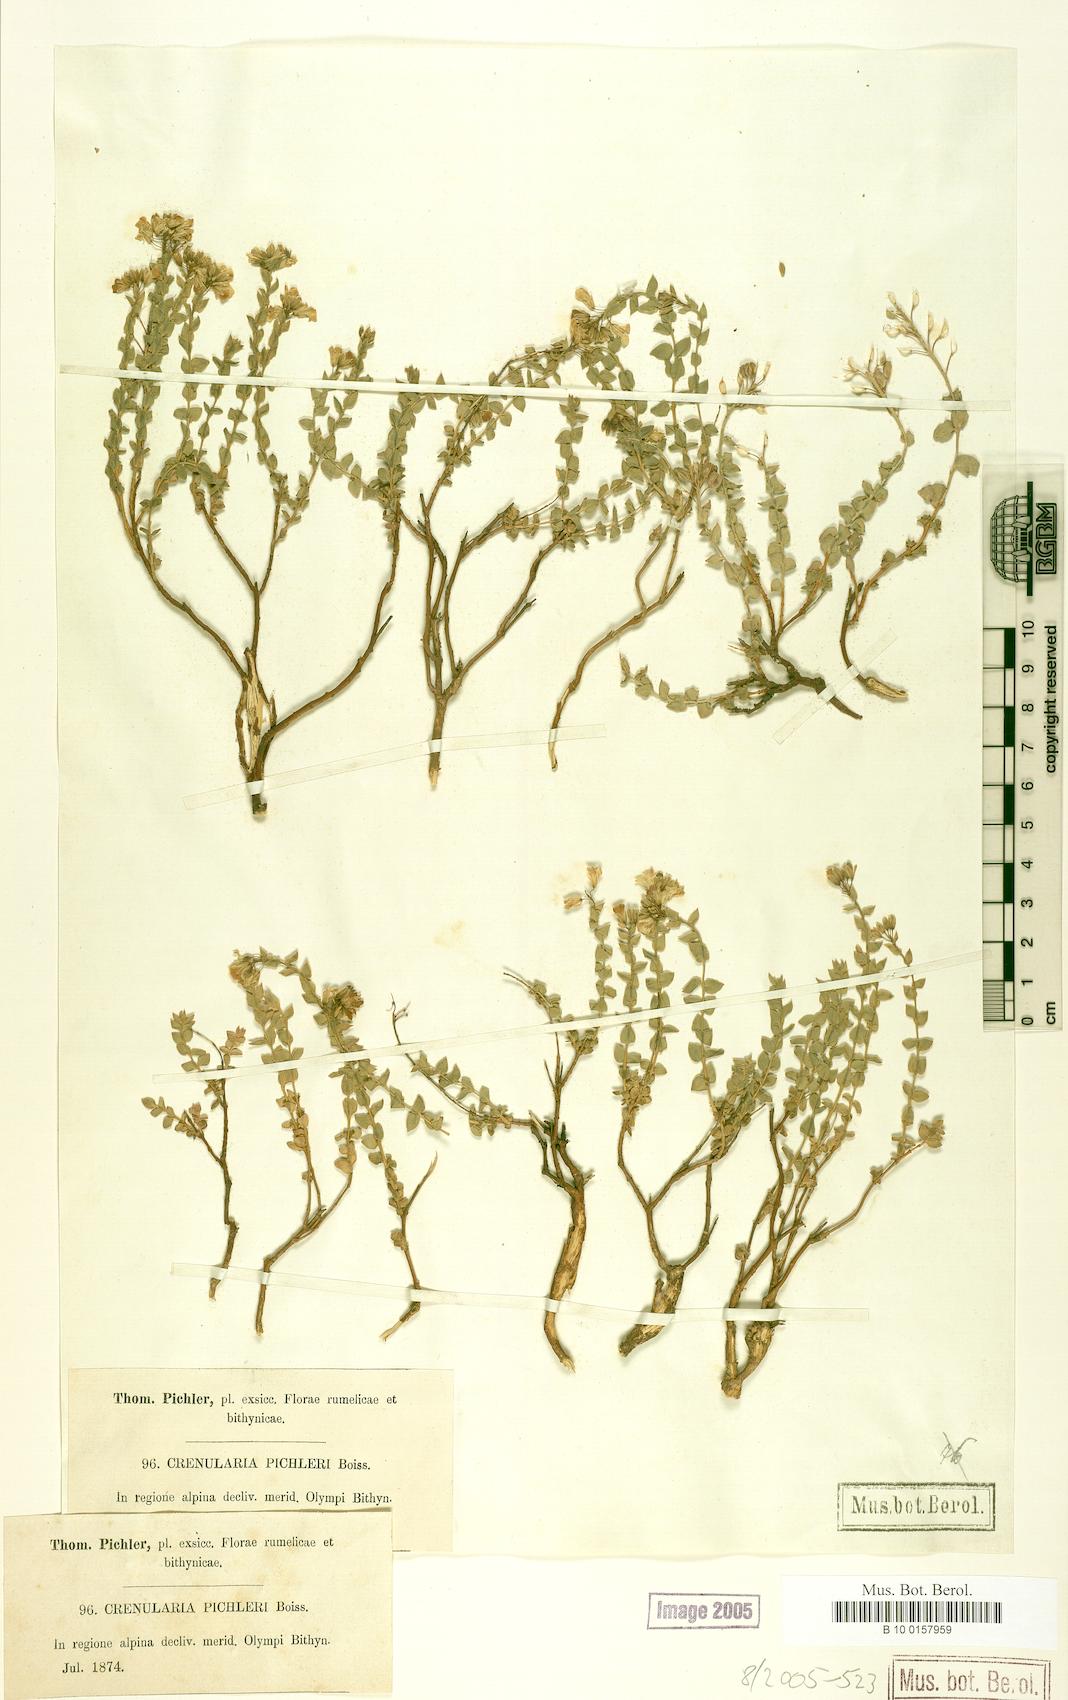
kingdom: Plantae
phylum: Tracheophyta
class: Magnoliopsida
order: Brassicales
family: Brassicaceae
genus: Aethionema
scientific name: Aethionema
